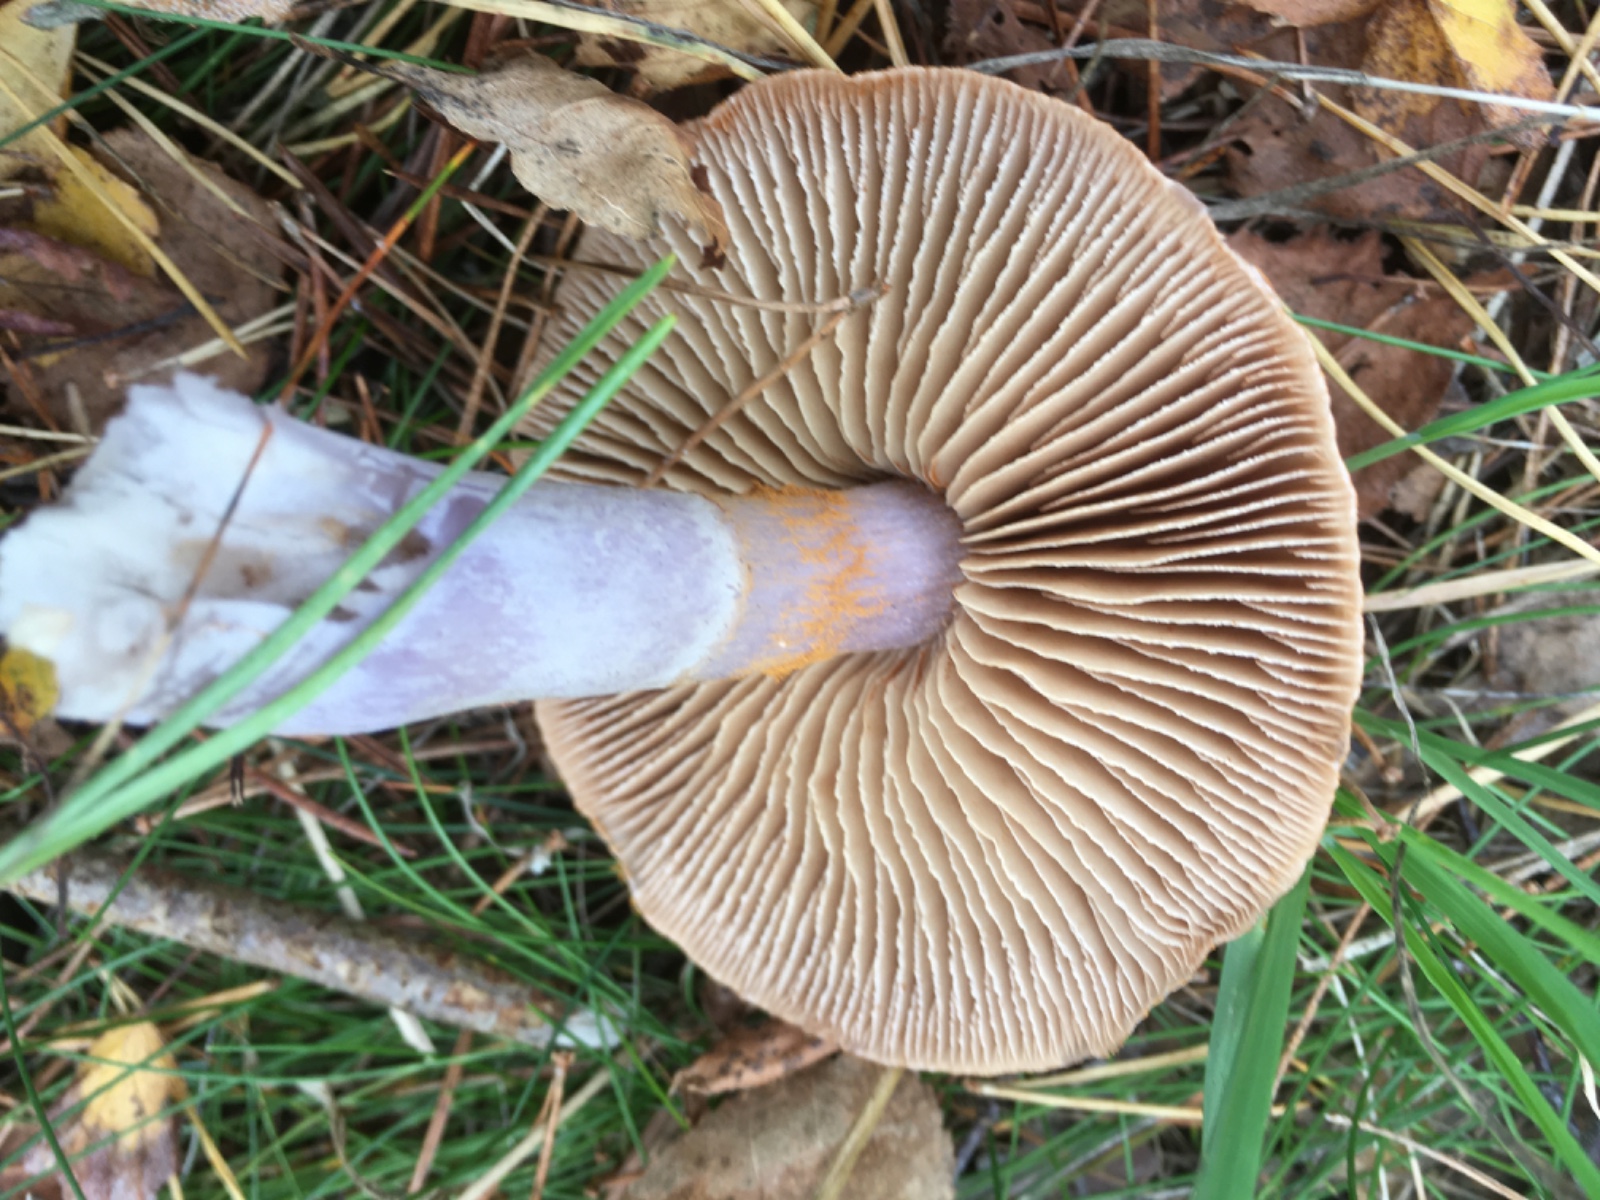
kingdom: Fungi
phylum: Basidiomycota
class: Agaricomycetes
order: Agaricales
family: Cortinariaceae
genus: Cortinarius
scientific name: Cortinarius
